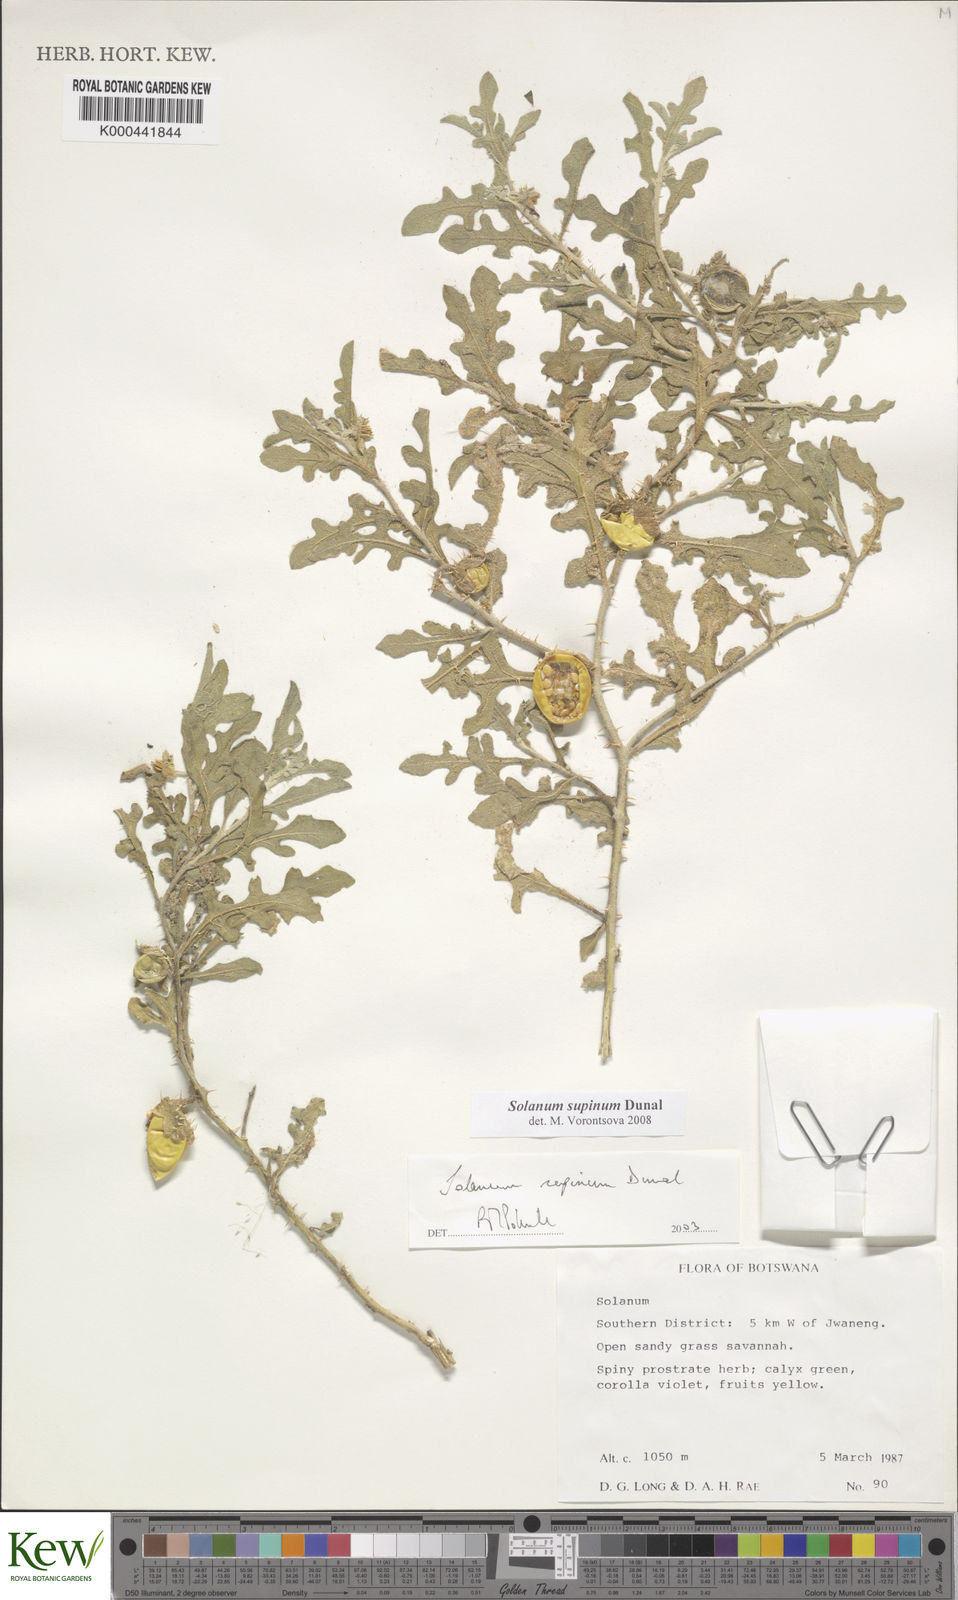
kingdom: Plantae
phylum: Tracheophyta
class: Magnoliopsida
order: Solanales
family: Solanaceae
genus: Solanum
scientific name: Solanum supinum
